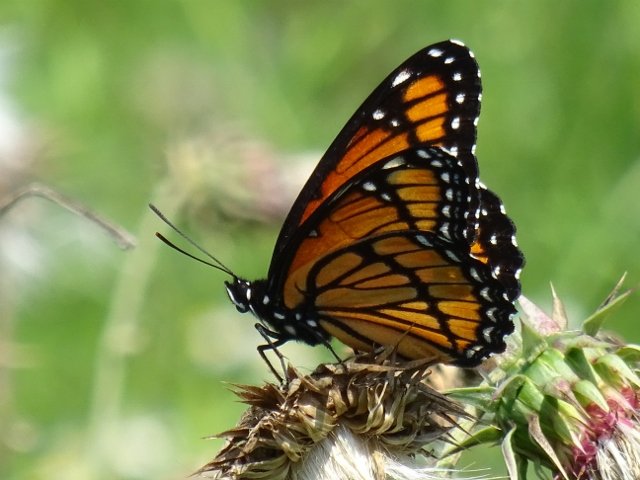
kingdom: Animalia
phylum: Arthropoda
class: Insecta
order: Lepidoptera
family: Nymphalidae
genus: Limenitis
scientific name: Limenitis archippus
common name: Viceroy
